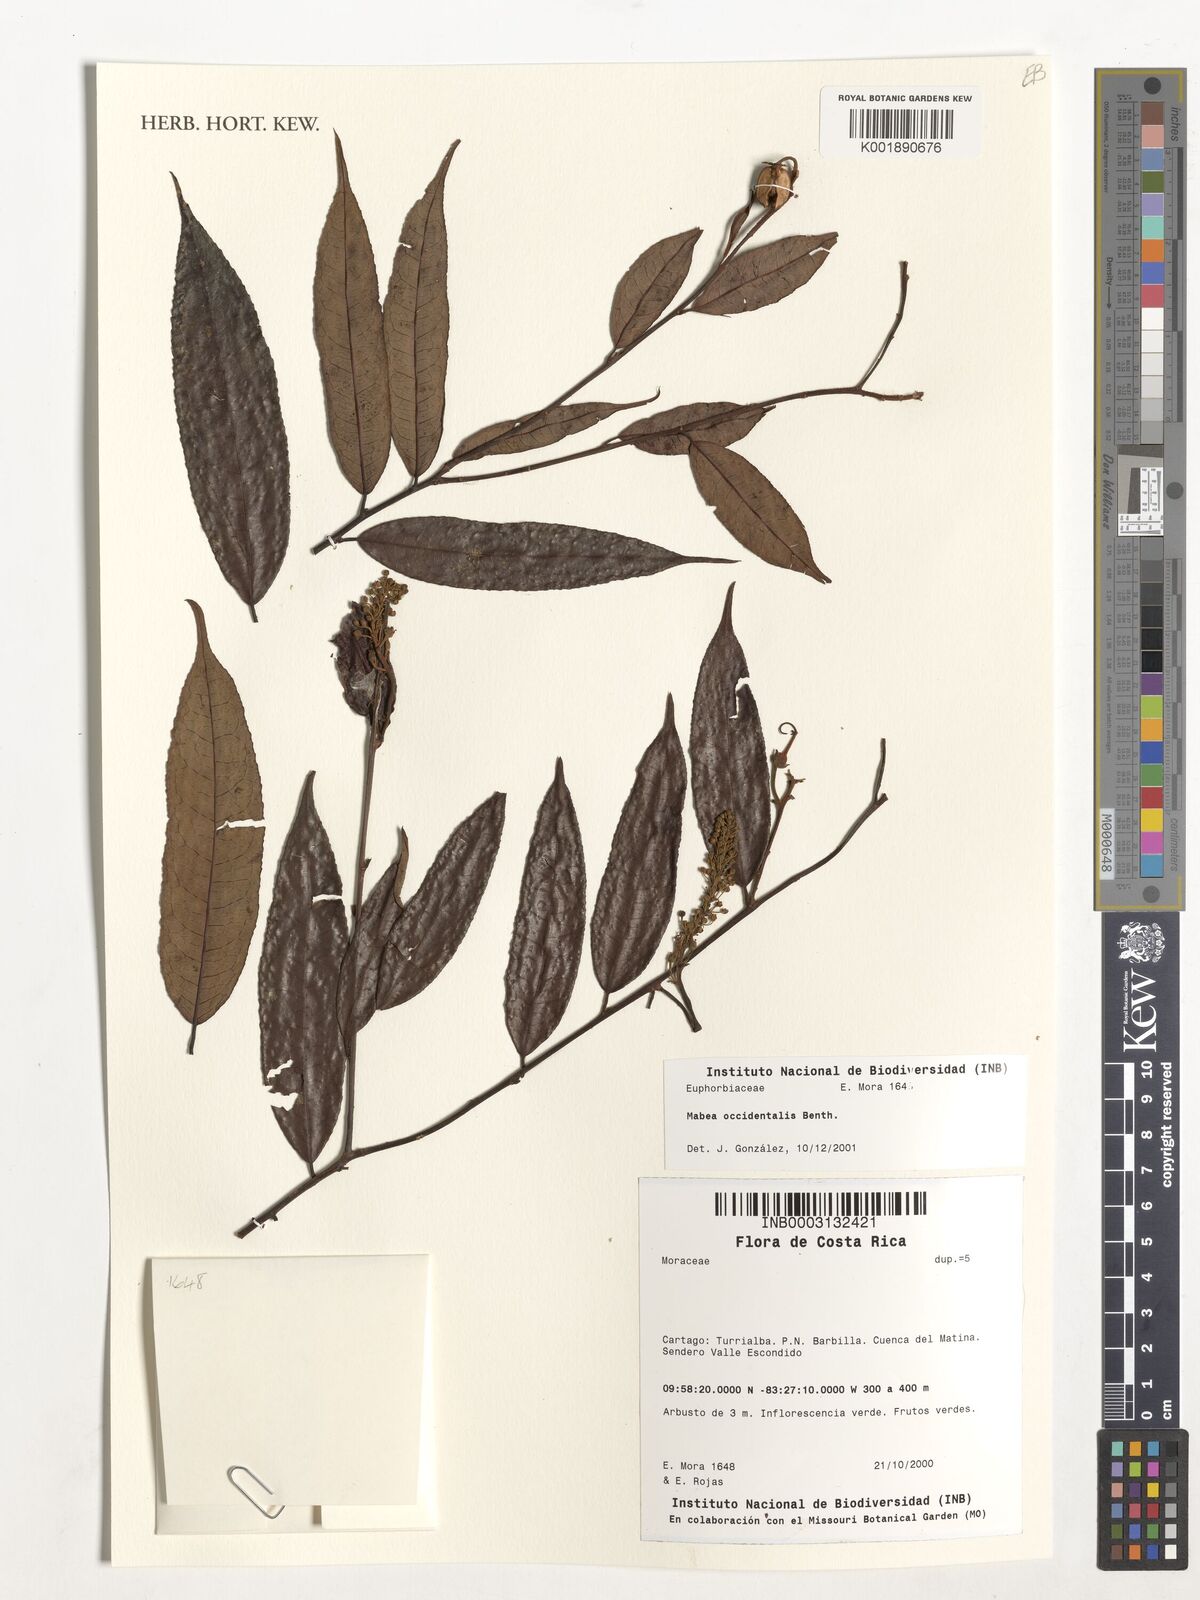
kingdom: Plantae
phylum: Tracheophyta
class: Magnoliopsida
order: Malpighiales
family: Euphorbiaceae
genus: Mabea
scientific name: Mabea occidentalis
